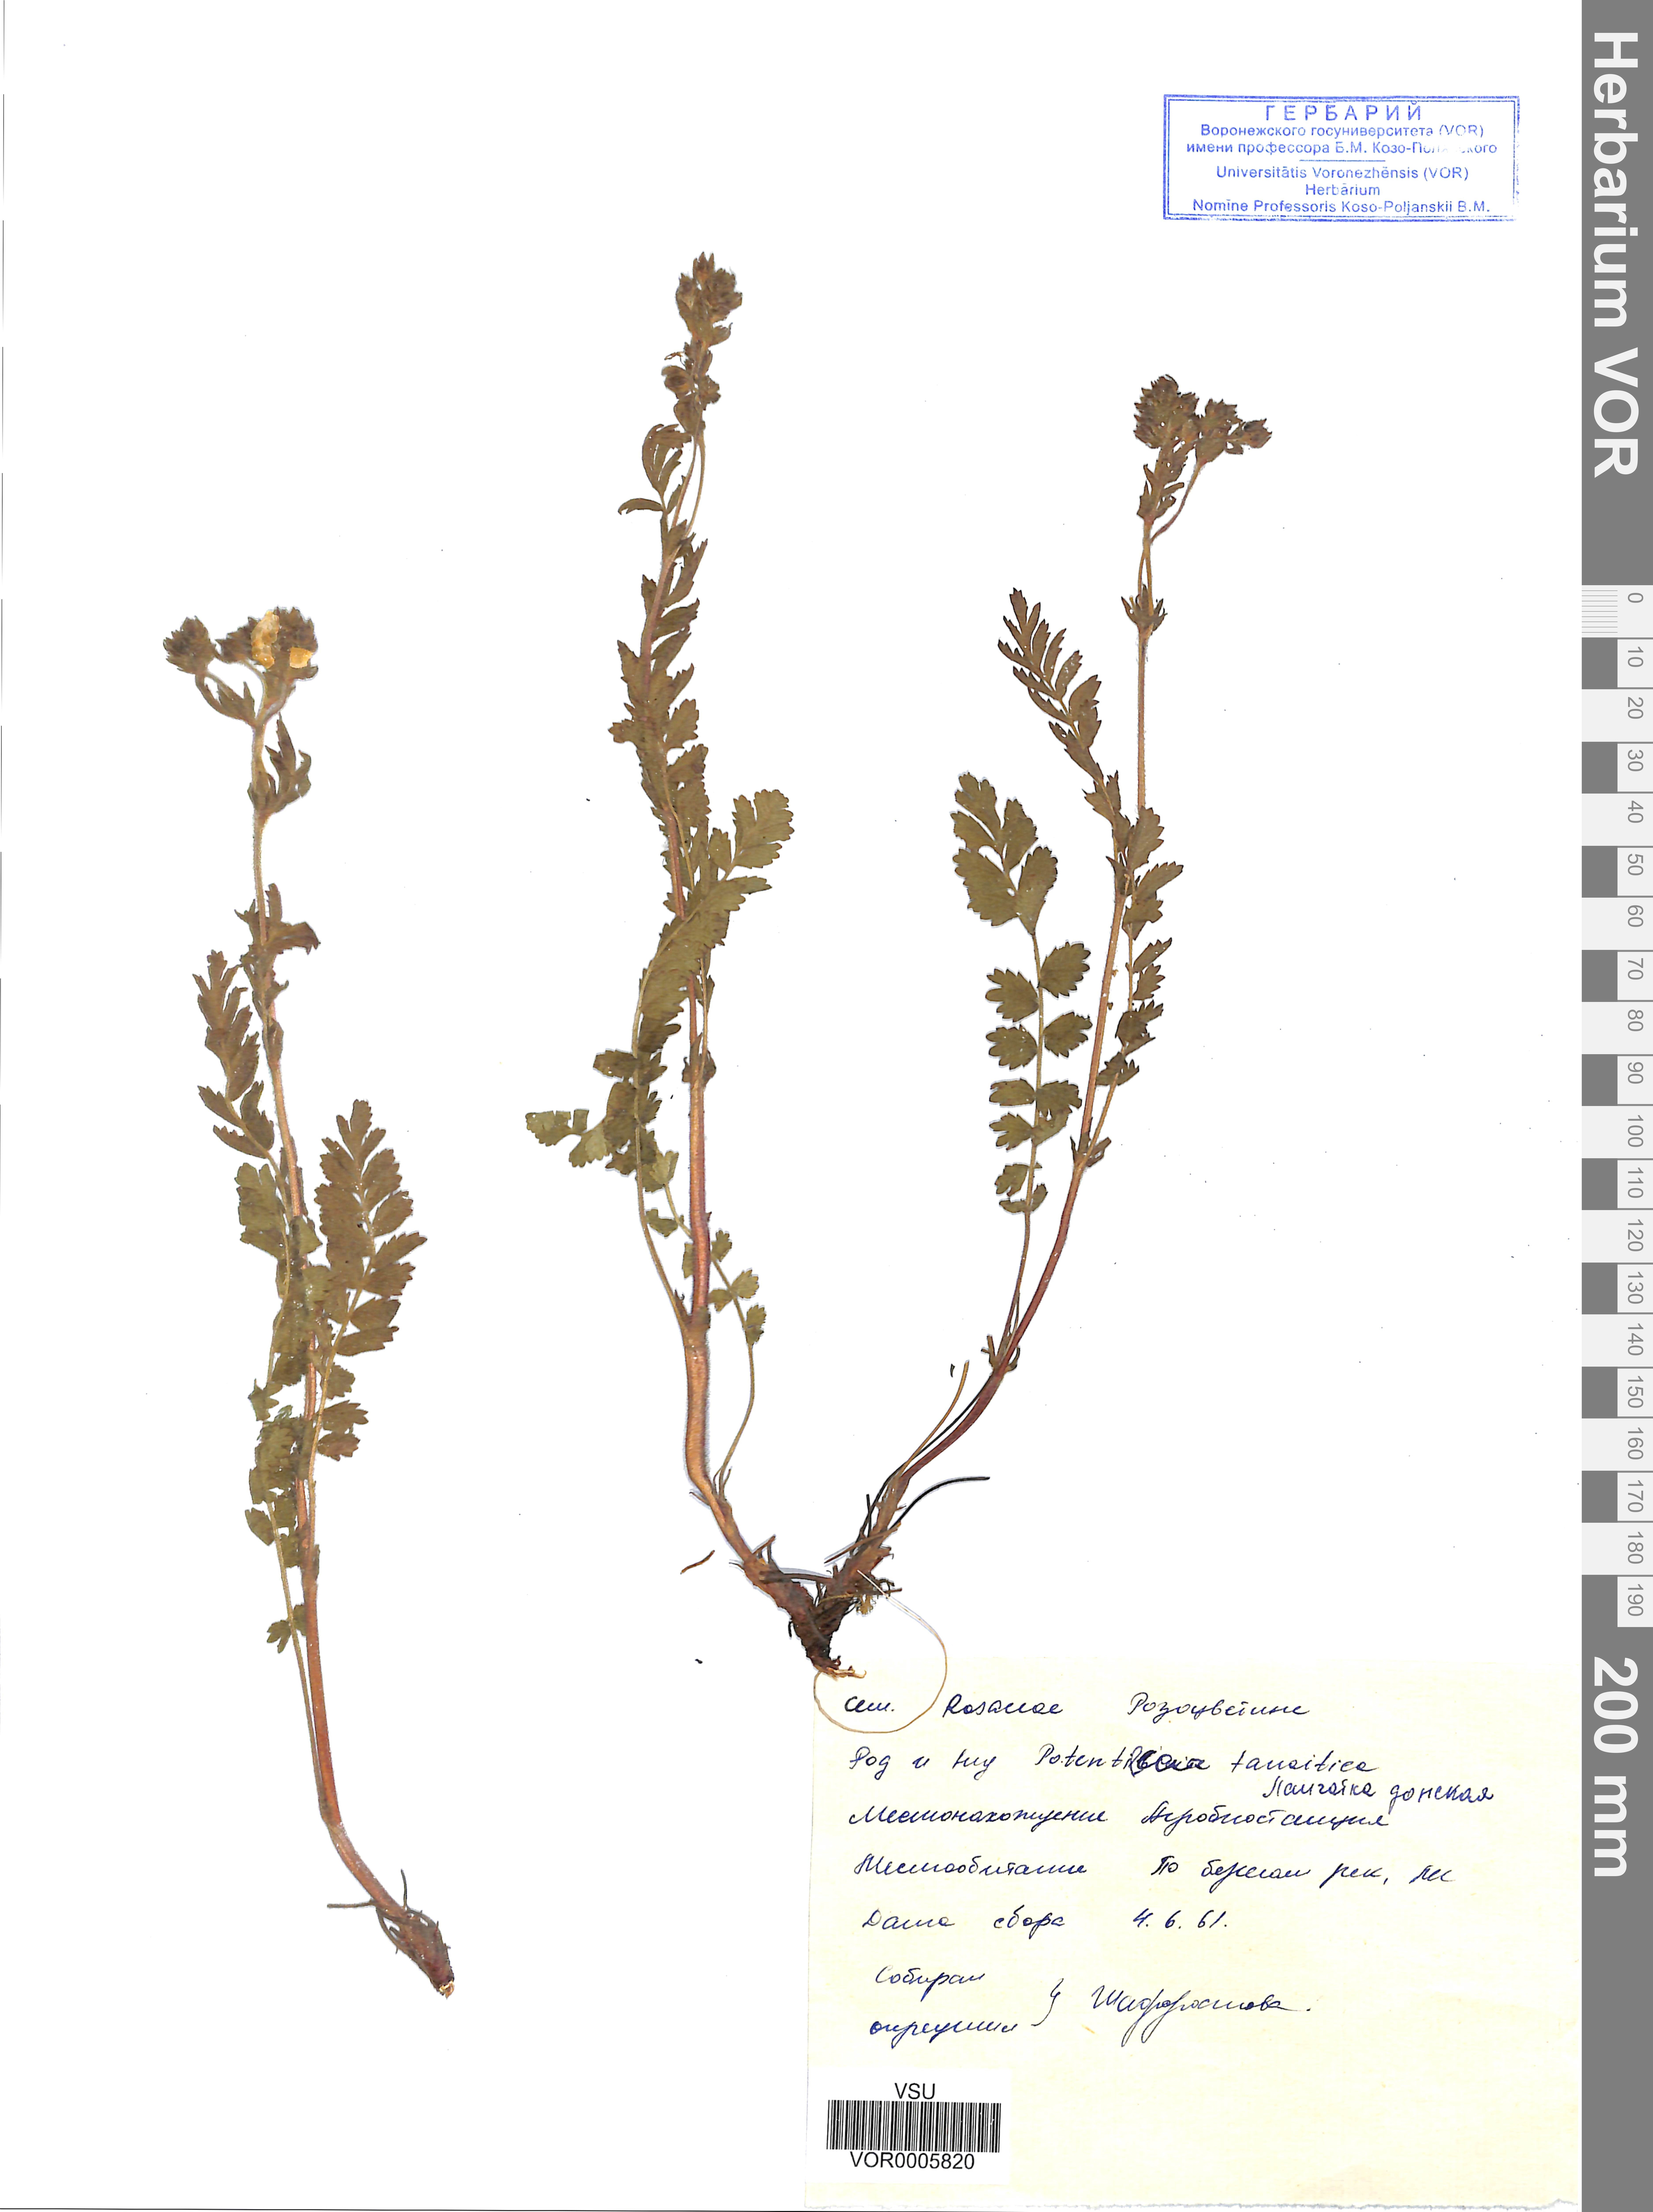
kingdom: Plantae
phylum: Tracheophyta
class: Magnoliopsida
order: Rosales
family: Rosaceae
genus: Potentilla
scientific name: Potentilla tanaitica
